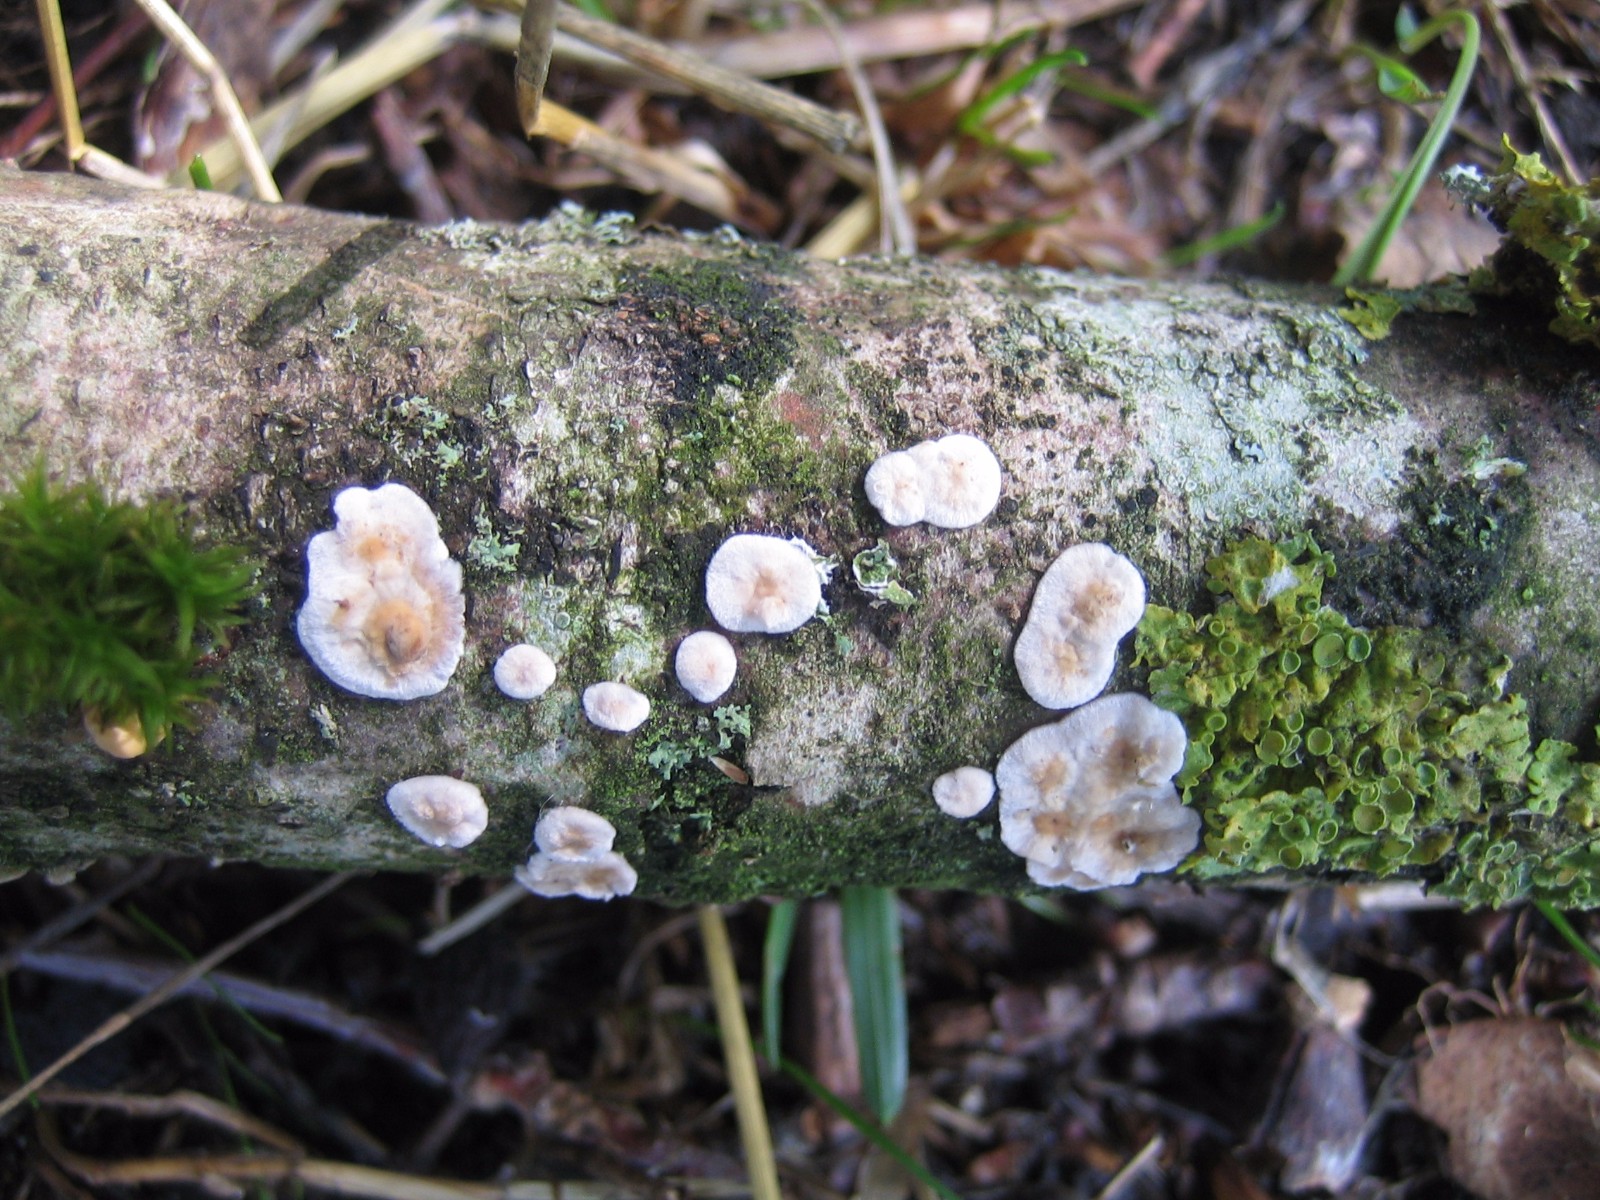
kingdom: Fungi
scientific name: Fungi
